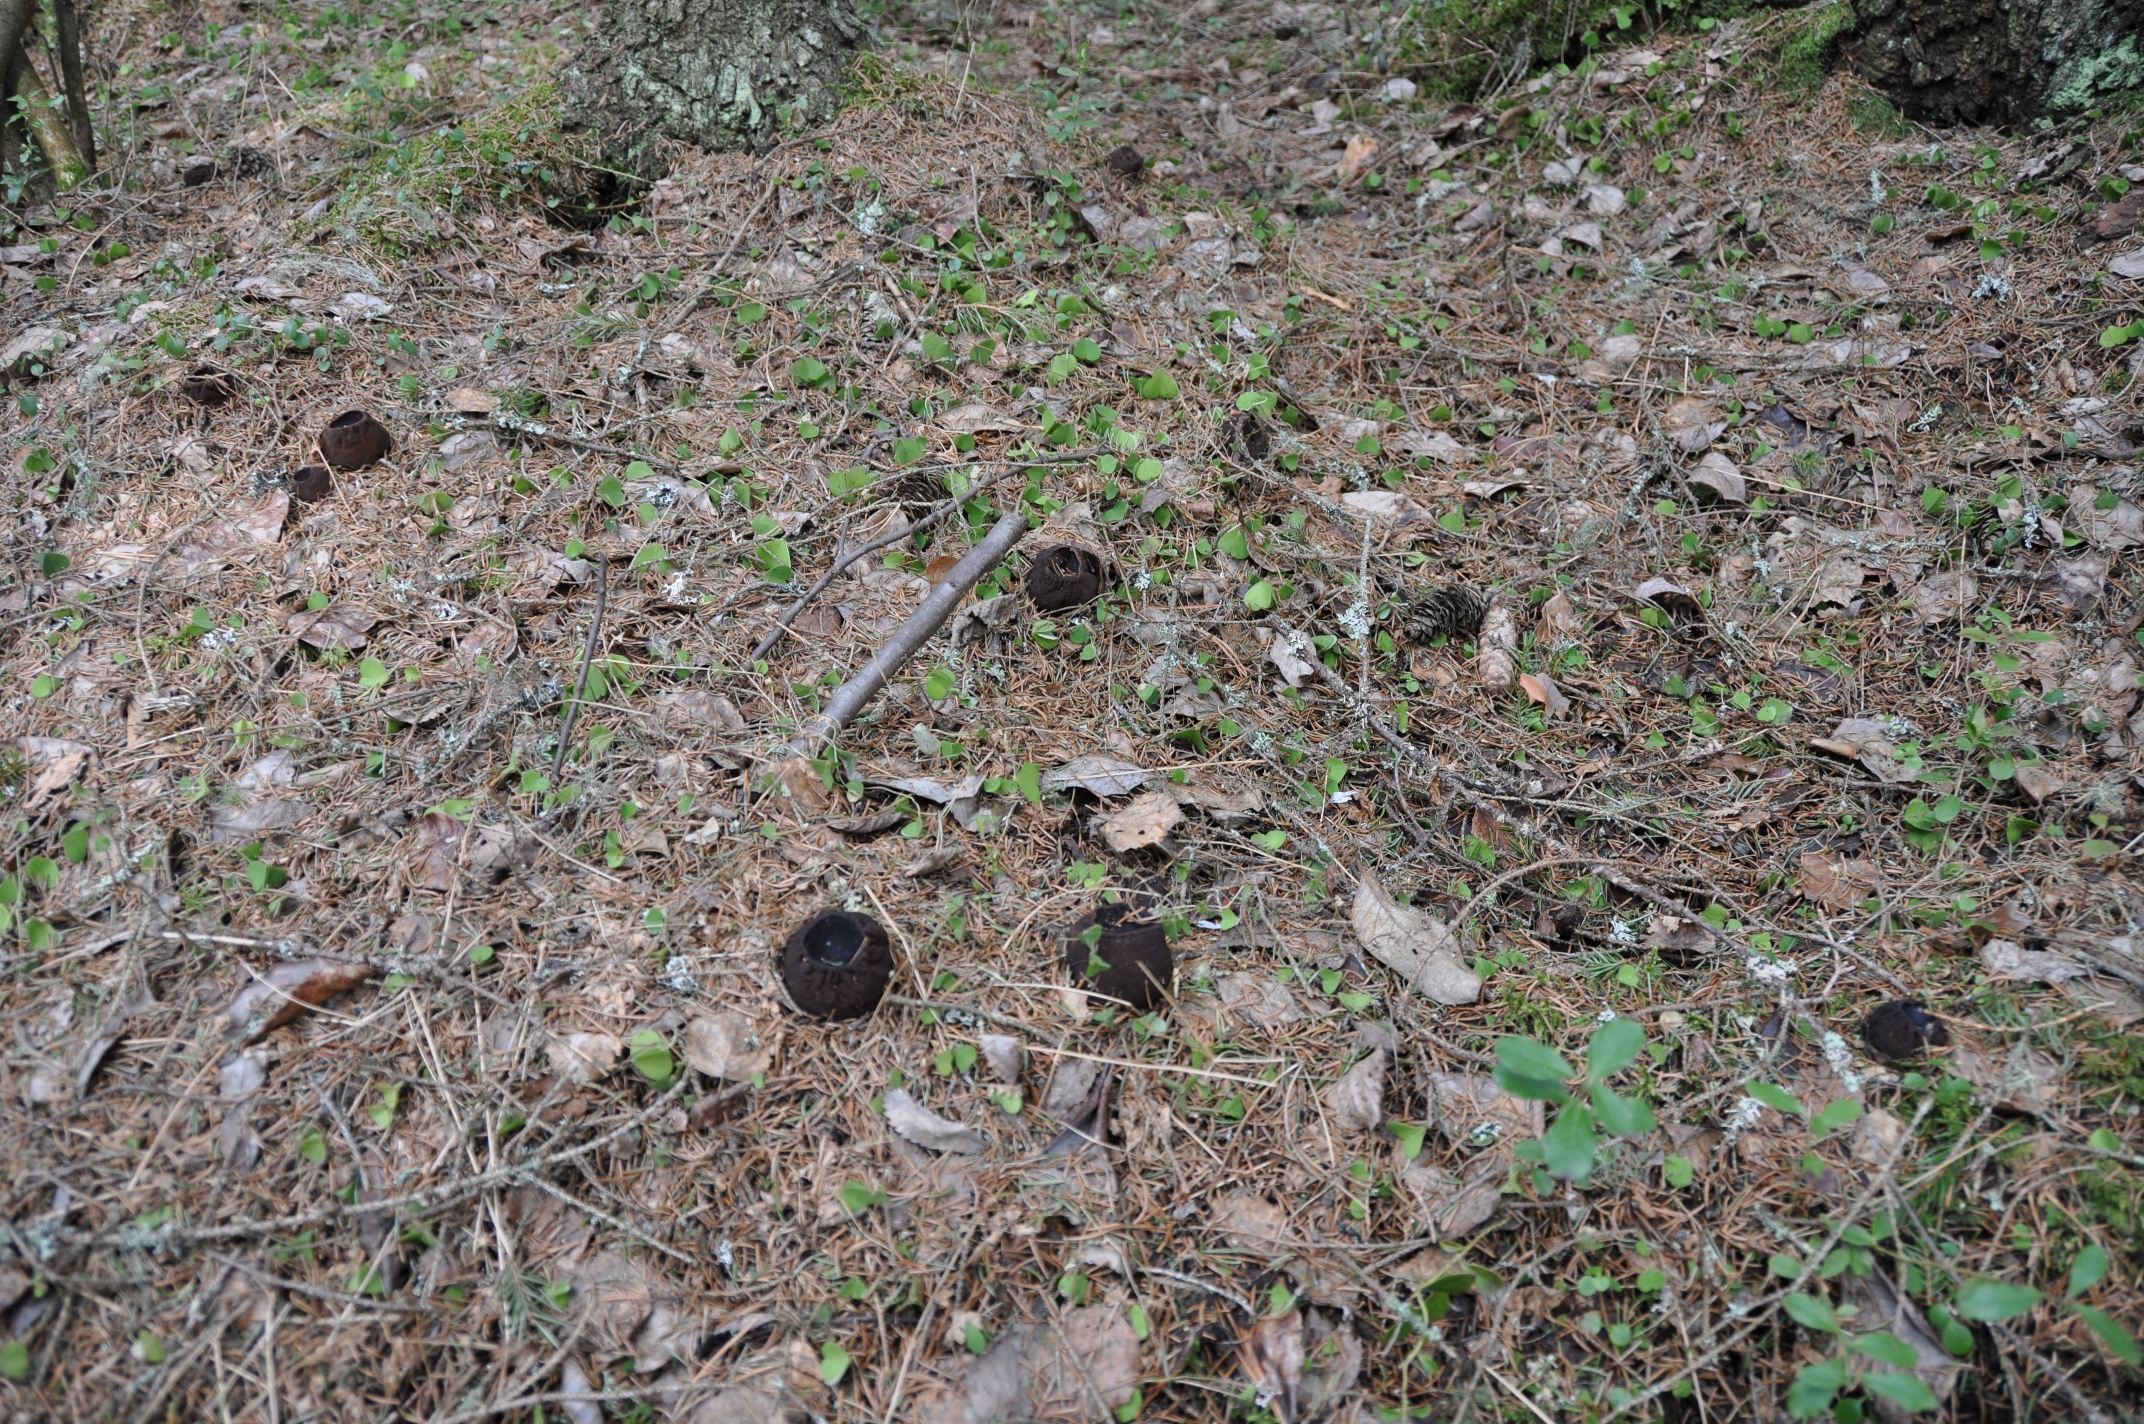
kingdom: Fungi
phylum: Ascomycota
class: Pezizomycetes
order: Pezizales
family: Sarcosomataceae
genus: Sarcosoma
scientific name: Sarcosoma globosum
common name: Charred-pancake cup
